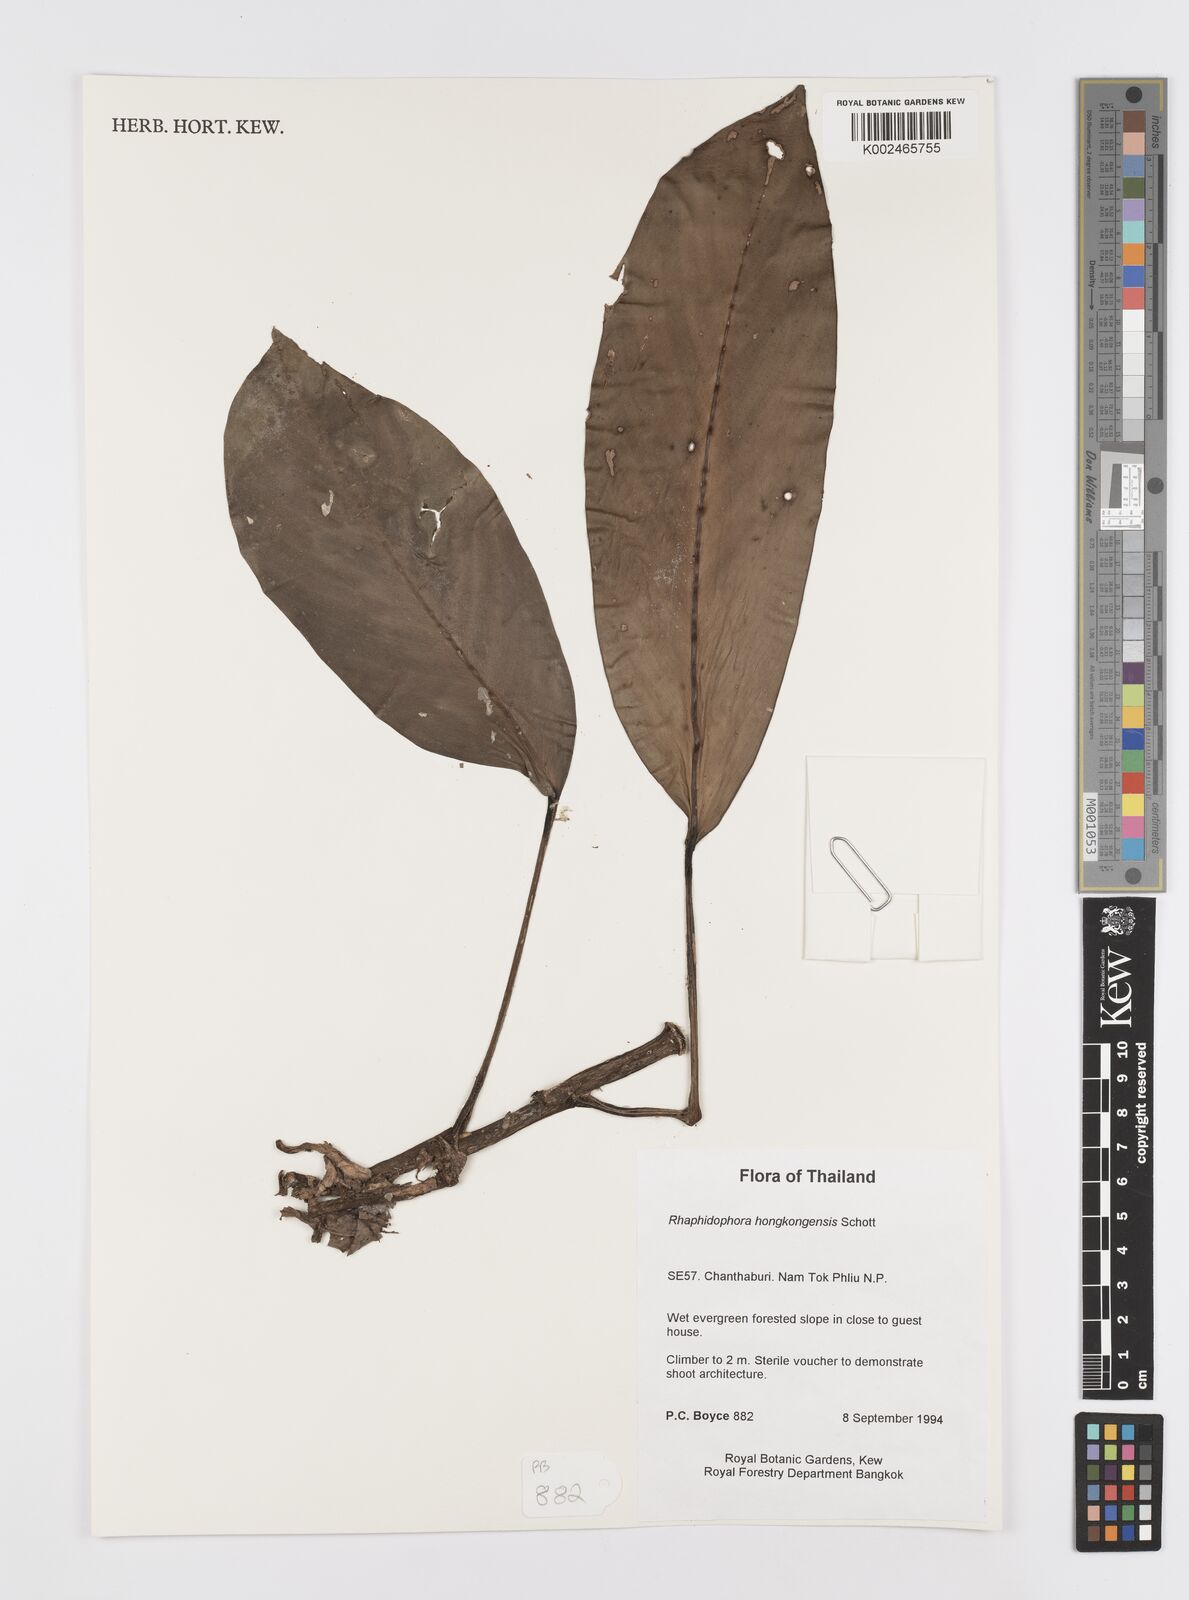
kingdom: Plantae
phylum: Tracheophyta
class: Liliopsida
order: Alismatales
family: Araceae
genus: Rhaphidophora
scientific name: Rhaphidophora
